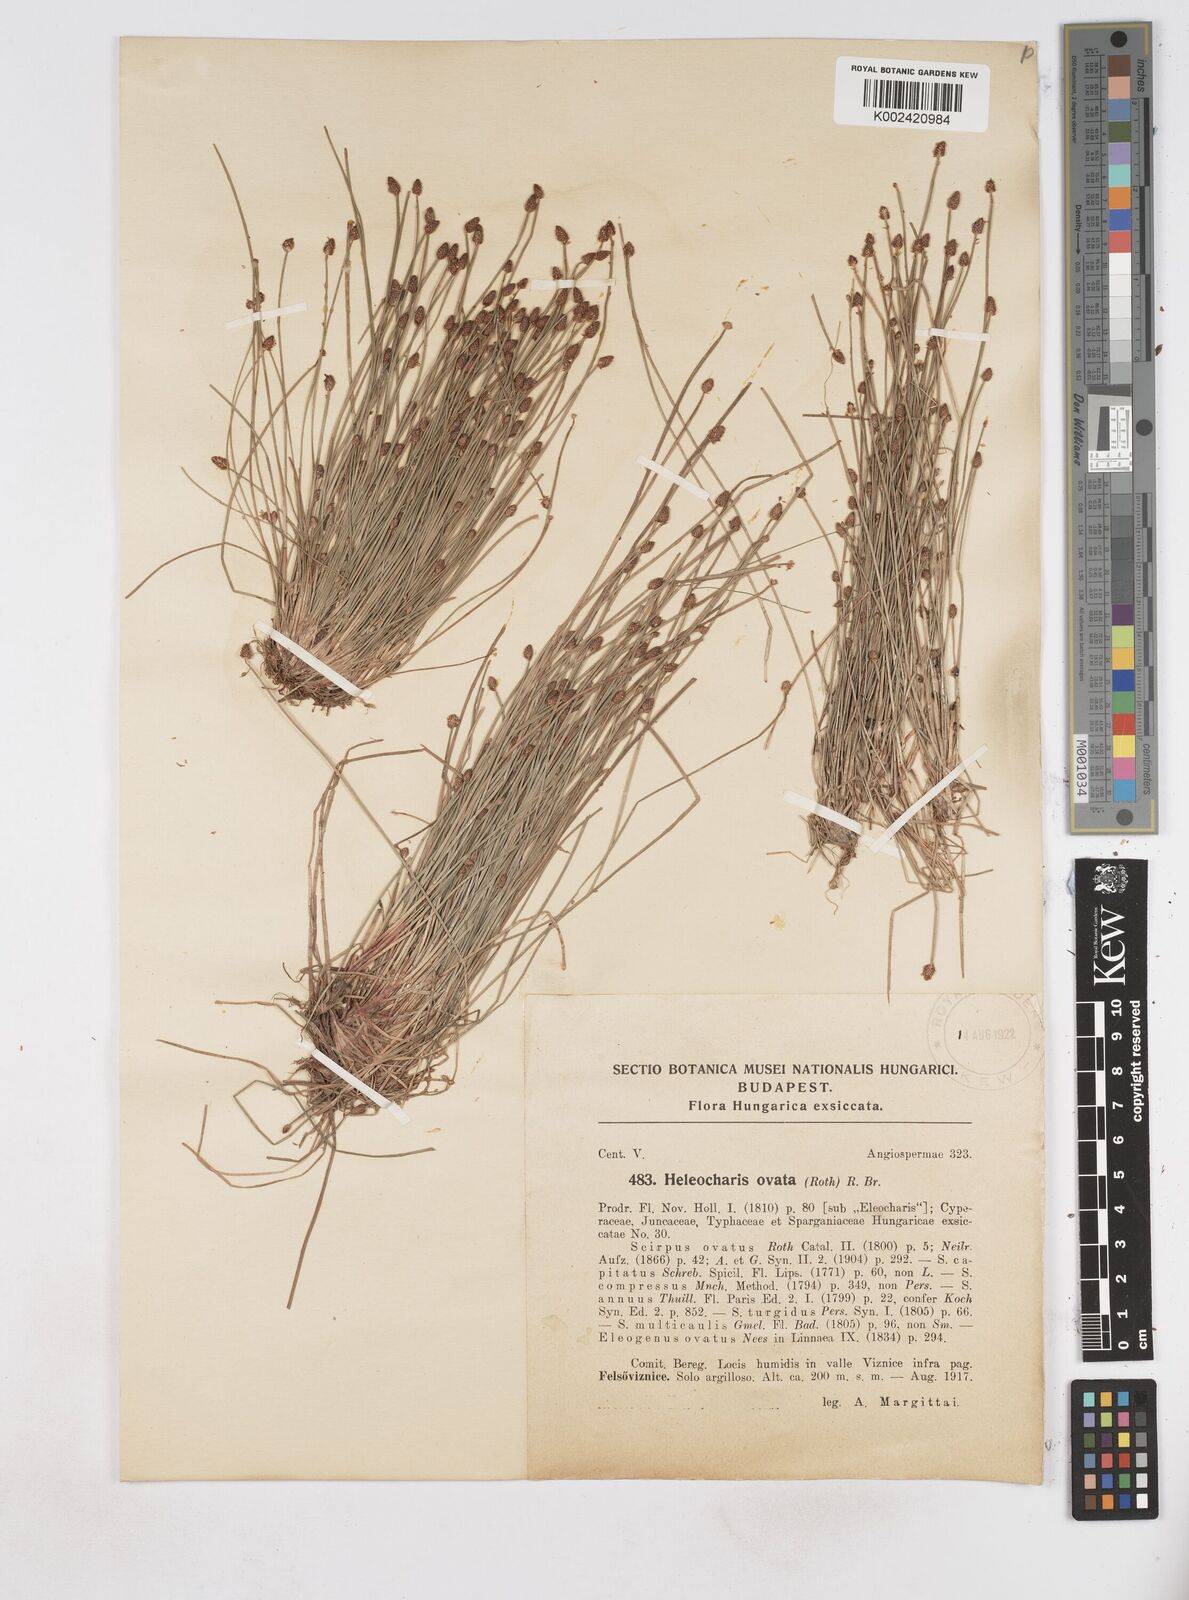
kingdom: Plantae
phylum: Tracheophyta
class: Liliopsida
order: Poales
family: Cyperaceae
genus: Eleocharis
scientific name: Eleocharis ovata
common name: Oval spike-rush
